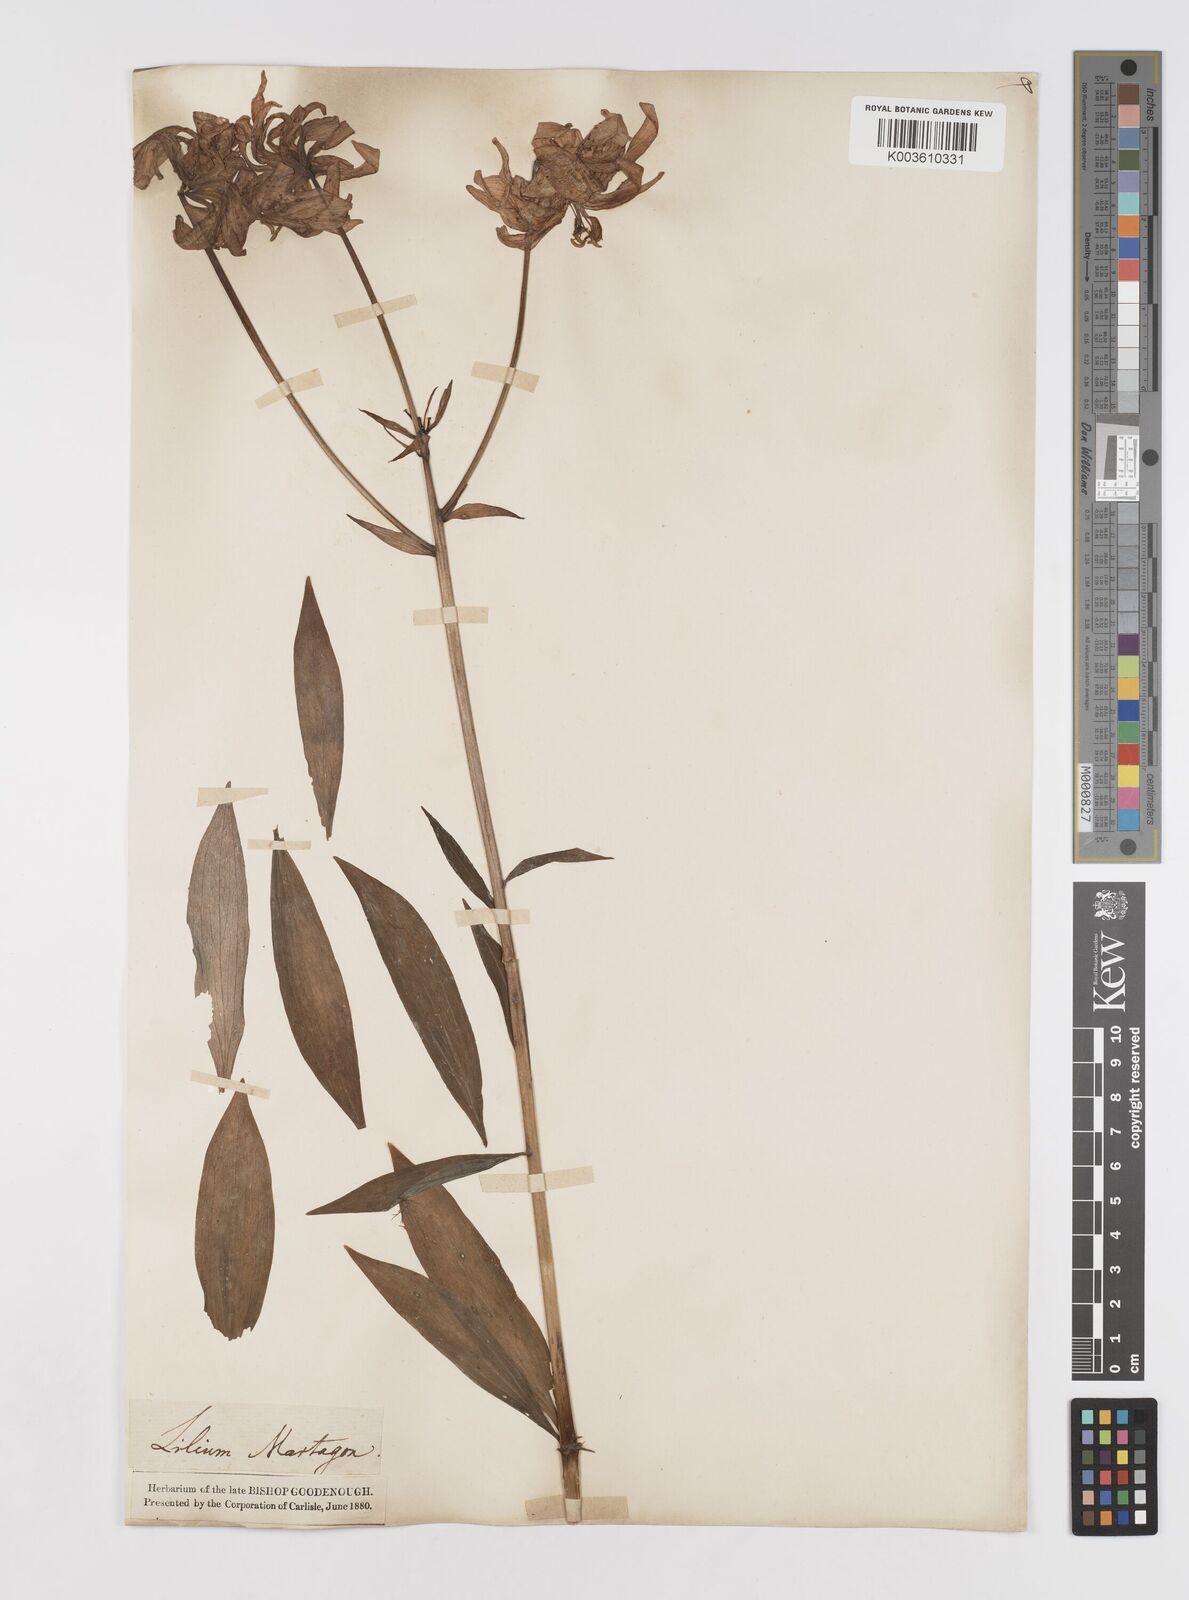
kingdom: Plantae
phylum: Tracheophyta
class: Liliopsida
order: Liliales
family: Liliaceae
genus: Lilium
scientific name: Lilium martagon
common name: Martagon lily
